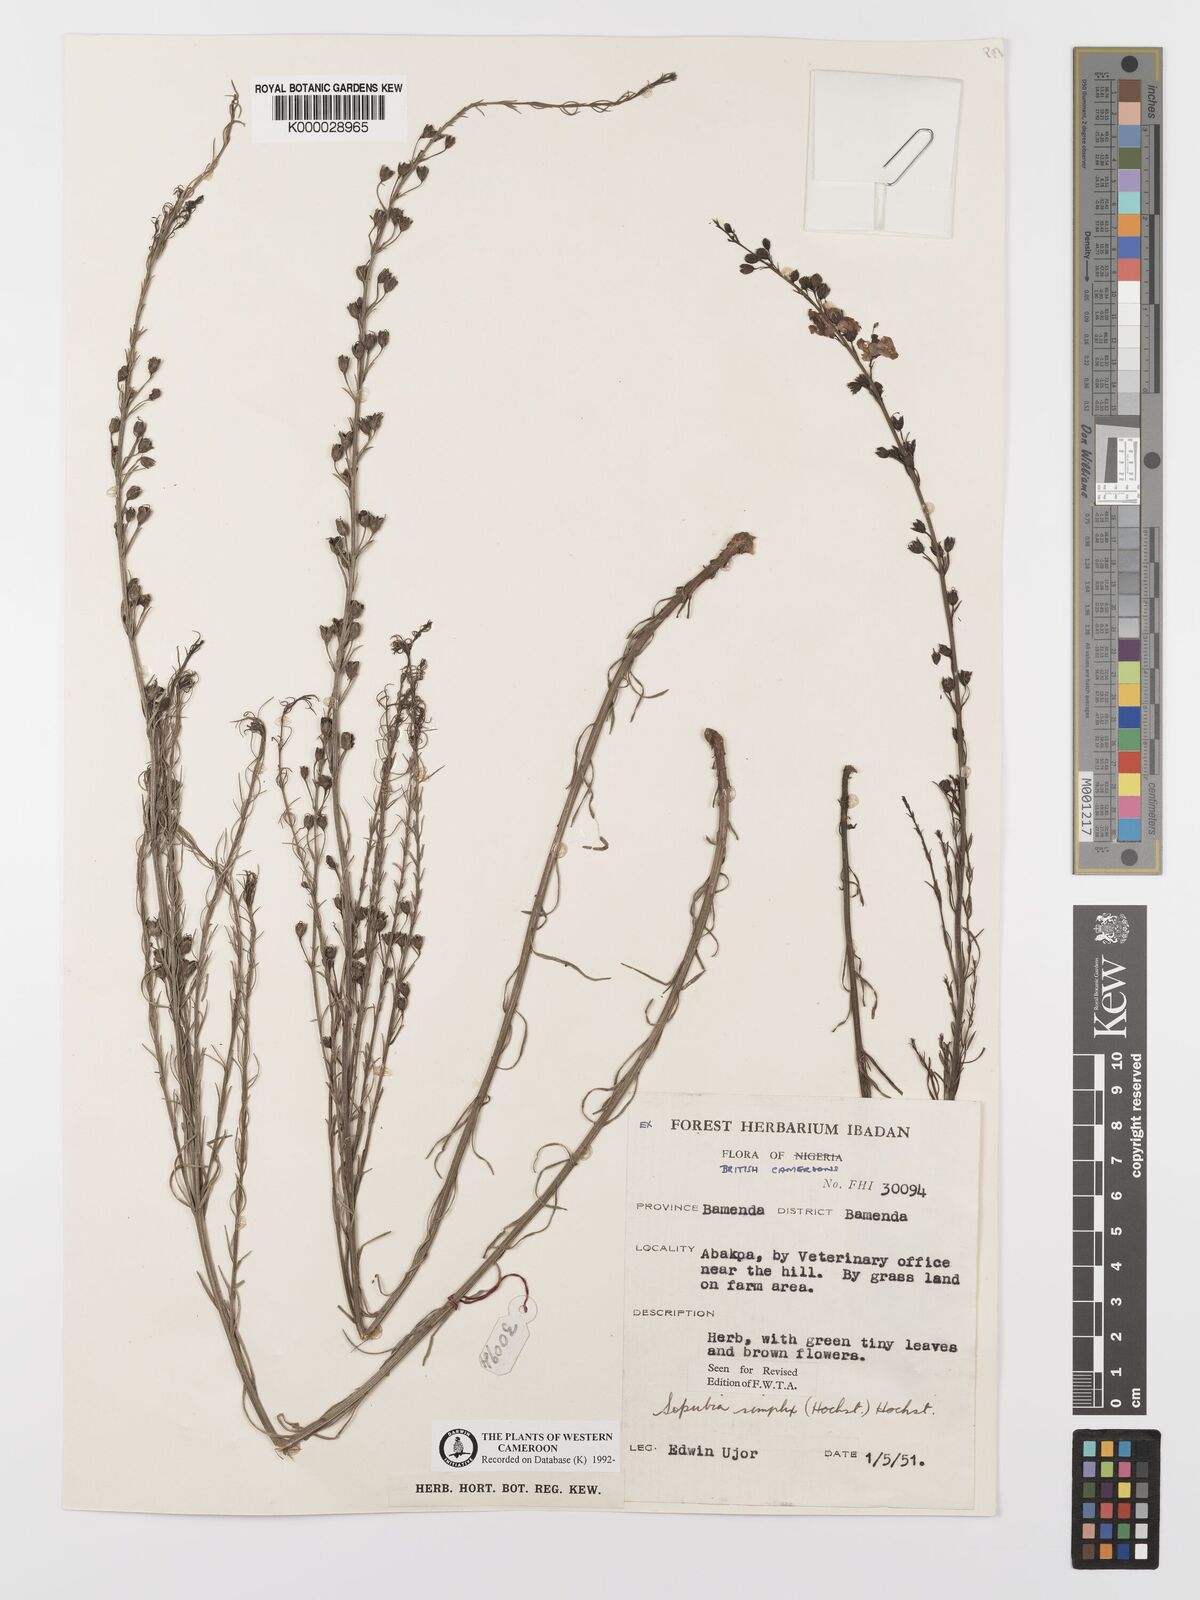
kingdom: Plantae
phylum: Tracheophyta
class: Magnoliopsida
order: Lamiales
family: Orobanchaceae
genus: Sopubia
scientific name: Sopubia simplex
